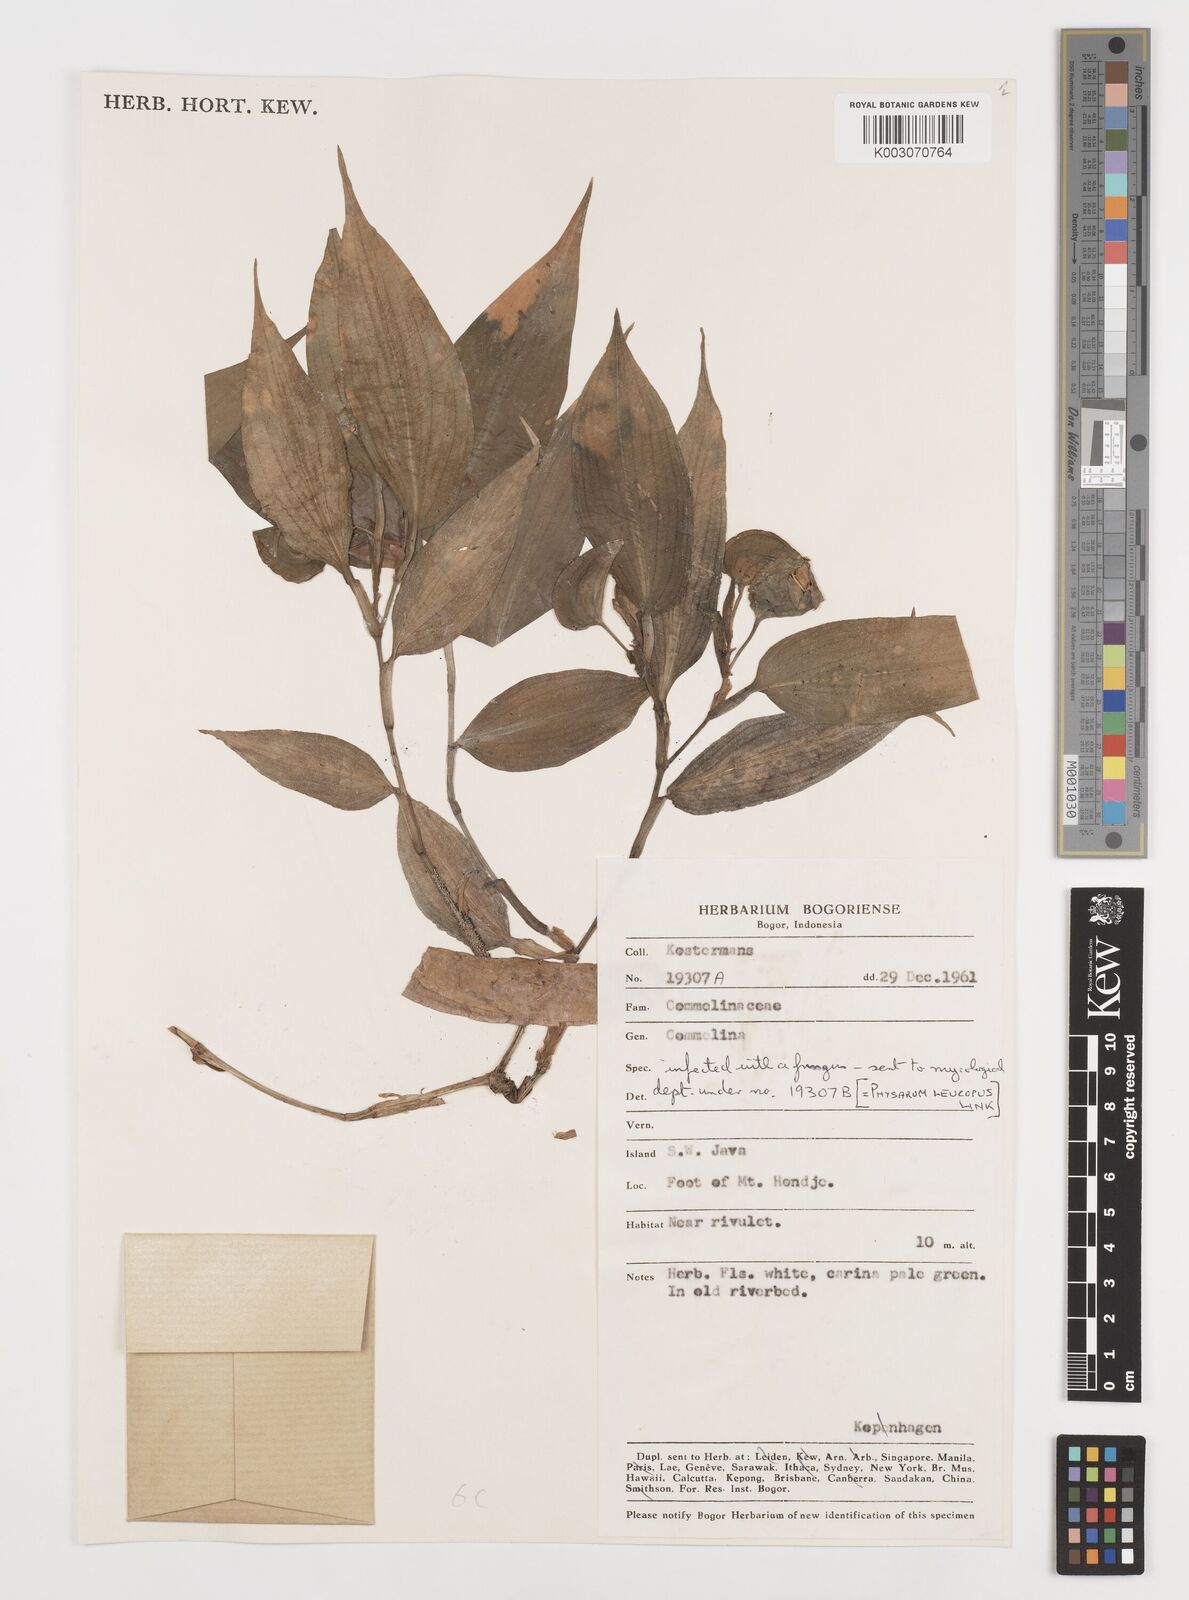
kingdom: Plantae
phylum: Tracheophyta
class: Liliopsida
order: Commelinales
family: Commelinaceae
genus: Commelina
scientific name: Commelina
